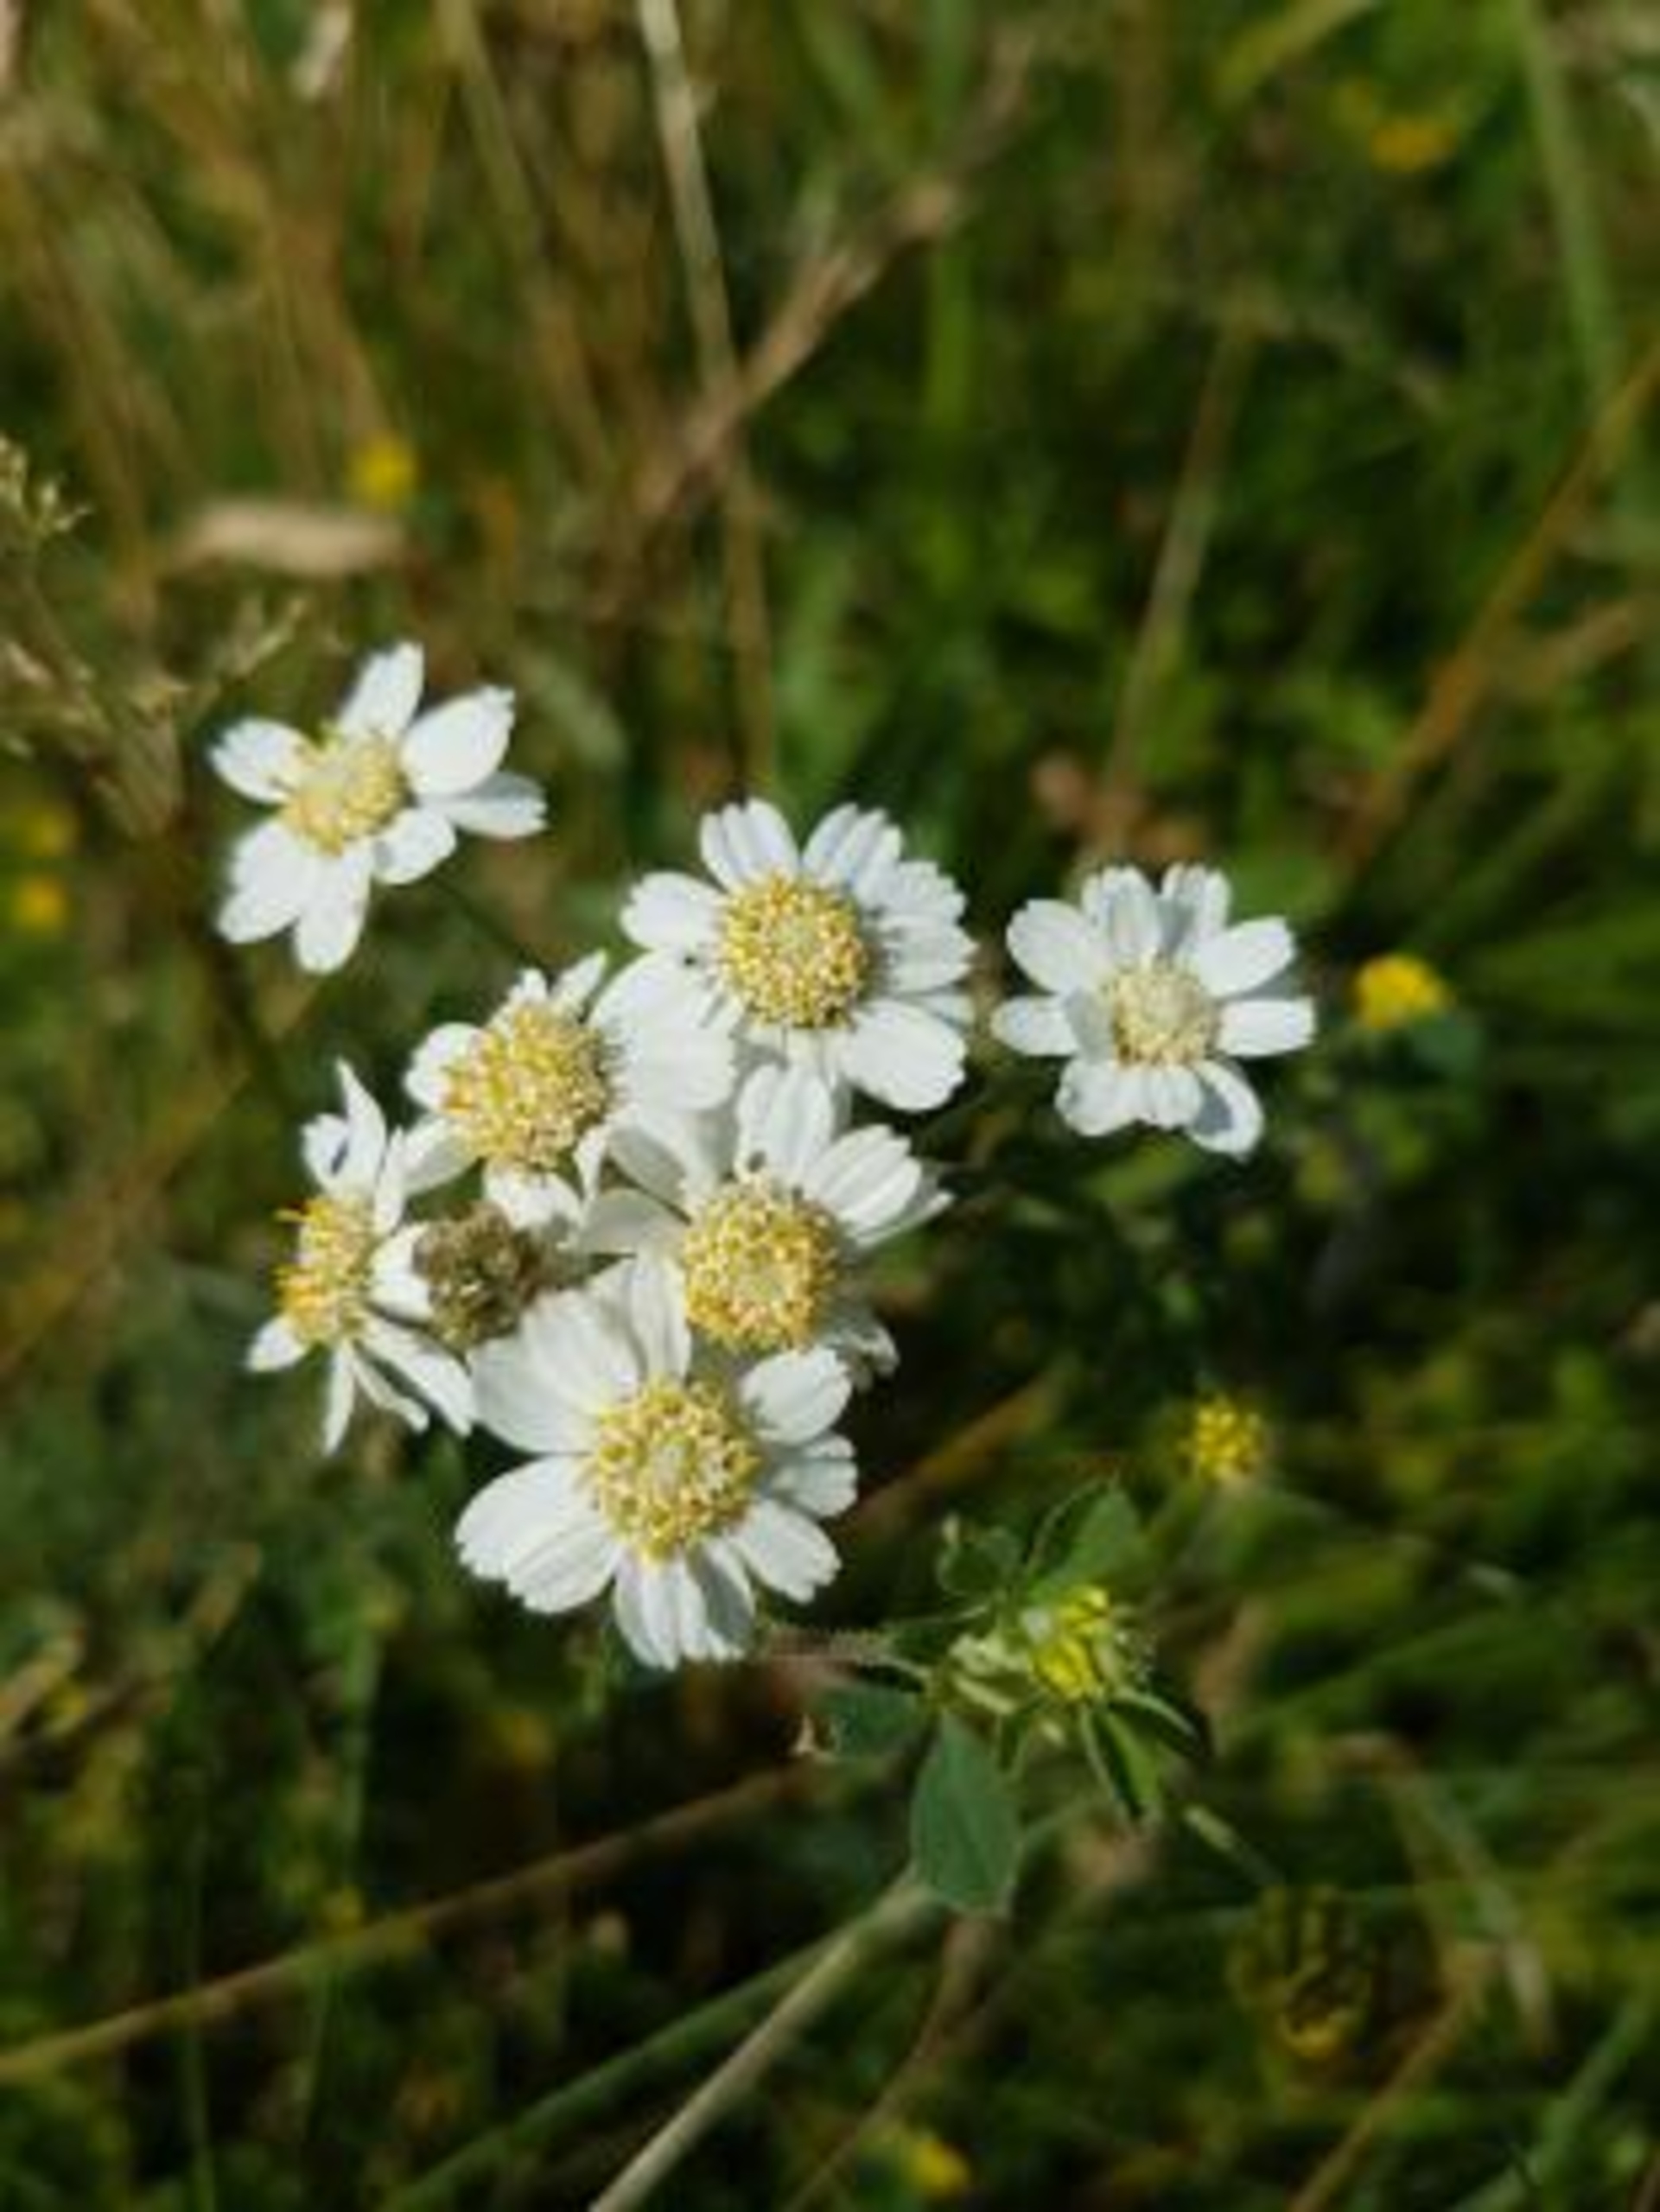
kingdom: Plantae
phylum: Tracheophyta
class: Magnoliopsida
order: Asterales
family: Asteraceae
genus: Achillea
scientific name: Achillea ptarmica
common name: Nyse-røllike
